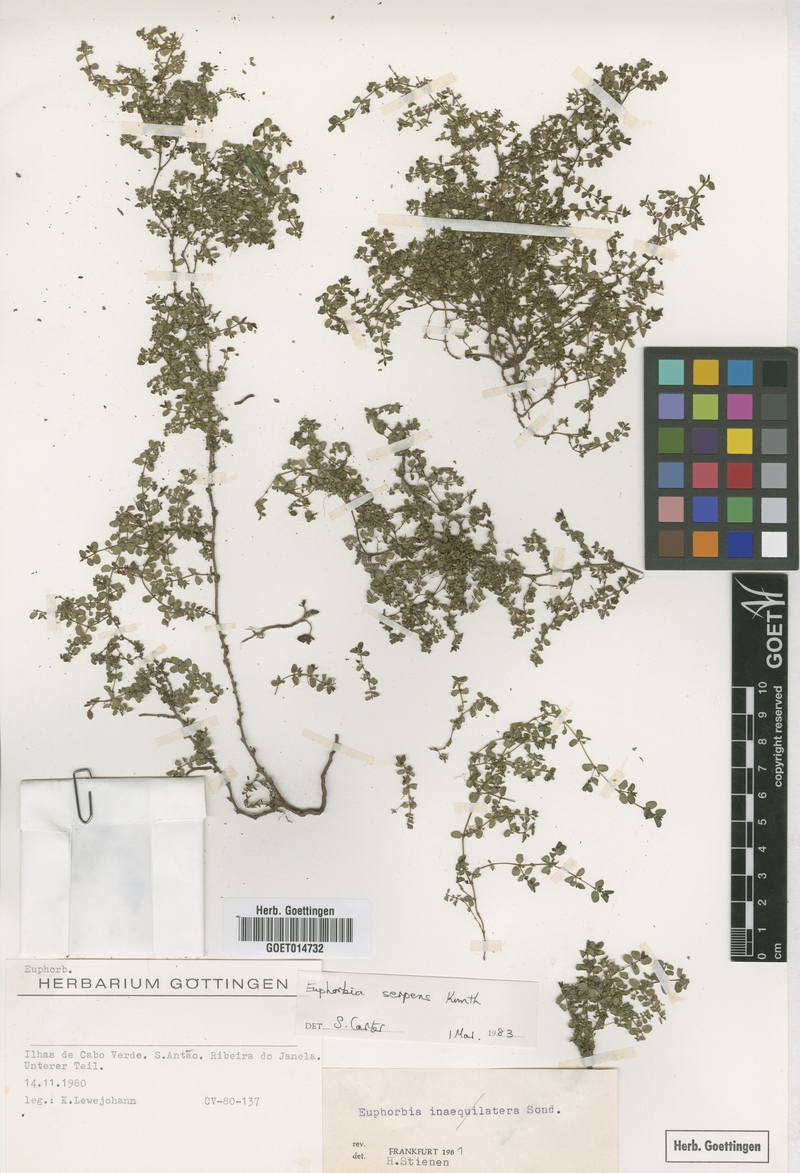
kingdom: Plantae
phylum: Tracheophyta
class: Magnoliopsida
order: Malpighiales
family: Euphorbiaceae
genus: Euphorbia
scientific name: Euphorbia serpens
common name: Matted sandmat
